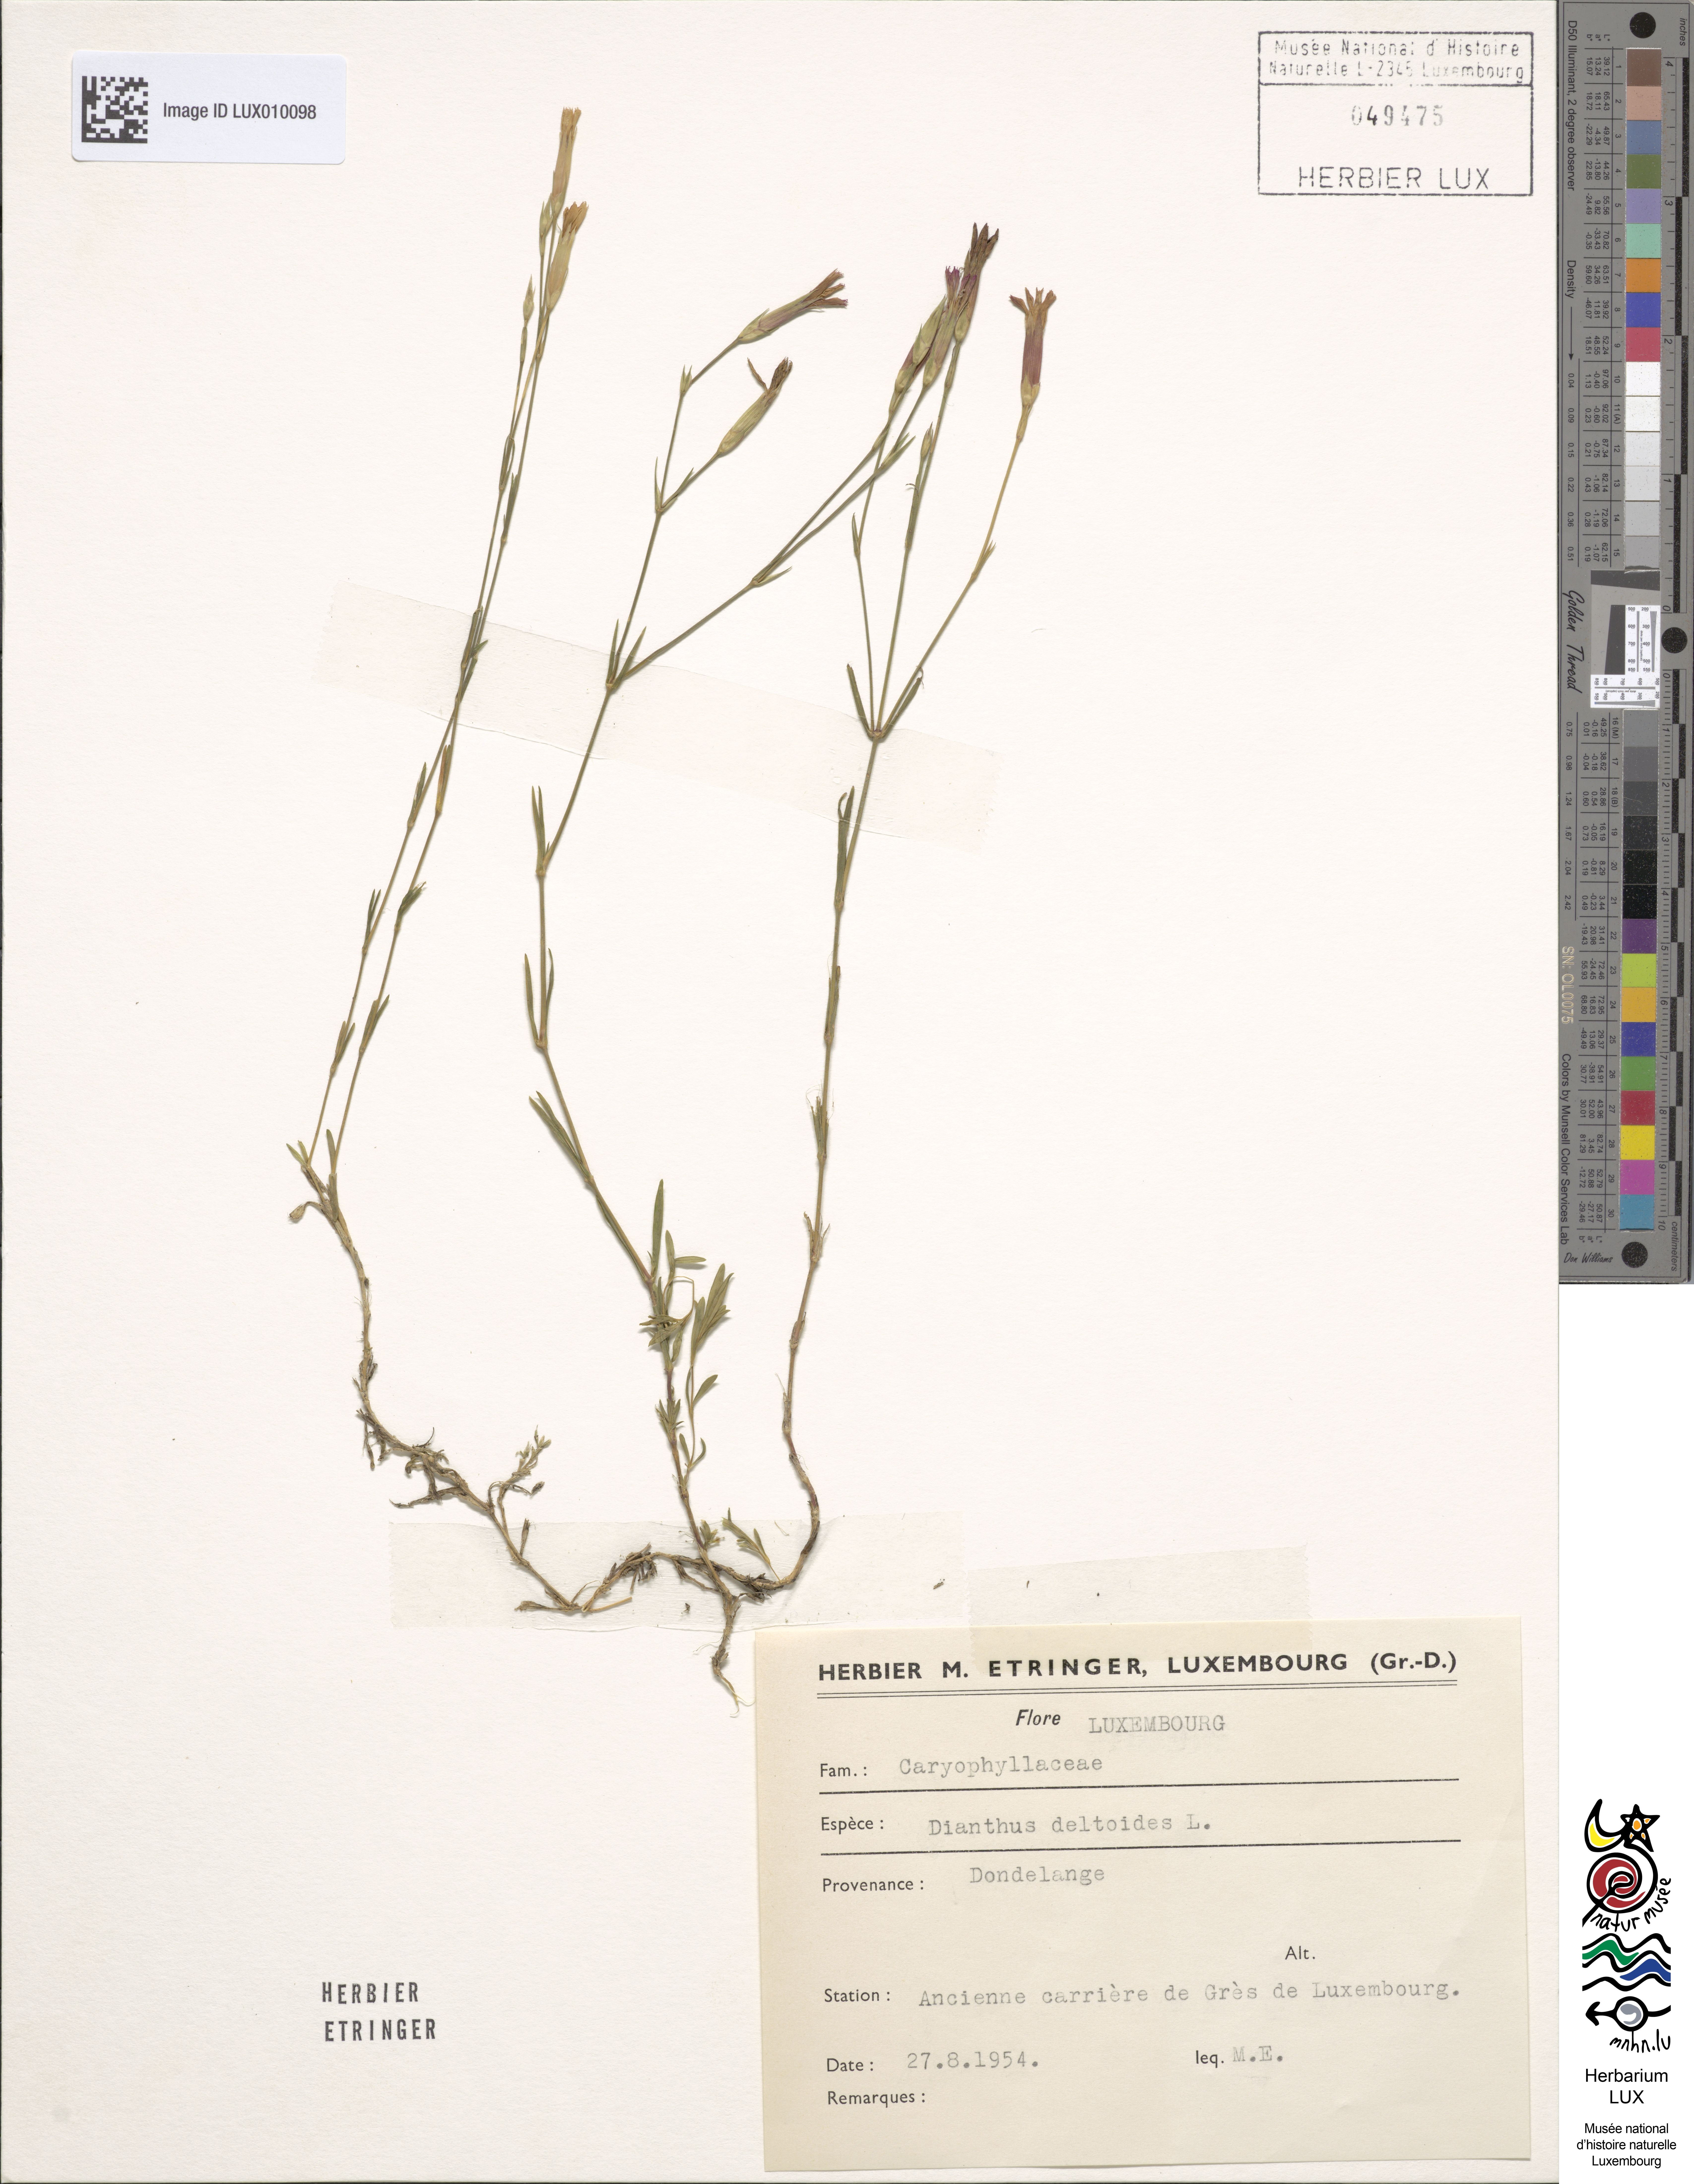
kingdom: Plantae
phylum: Tracheophyta
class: Magnoliopsida
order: Caryophyllales
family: Caryophyllaceae
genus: Dianthus
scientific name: Dianthus deltoides
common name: Maiden pink
